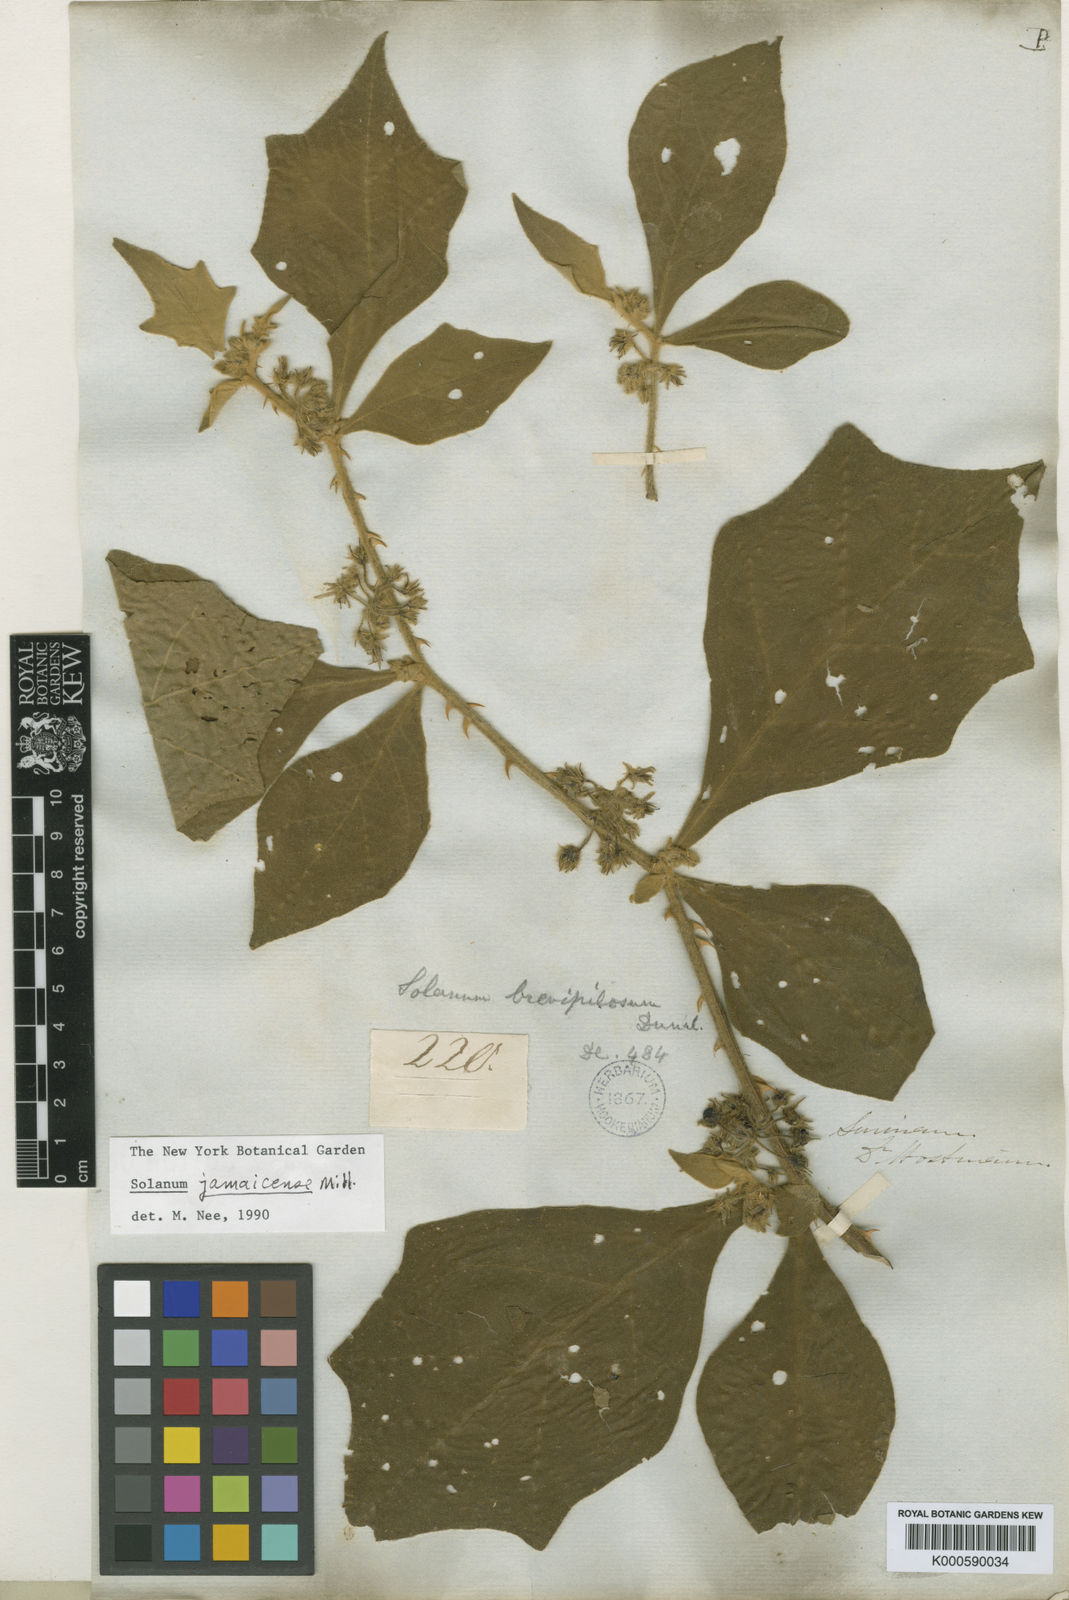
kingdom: Plantae
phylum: Tracheophyta
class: Magnoliopsida
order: Solanales
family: Solanaceae
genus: Solanum
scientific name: Solanum jamaicense
